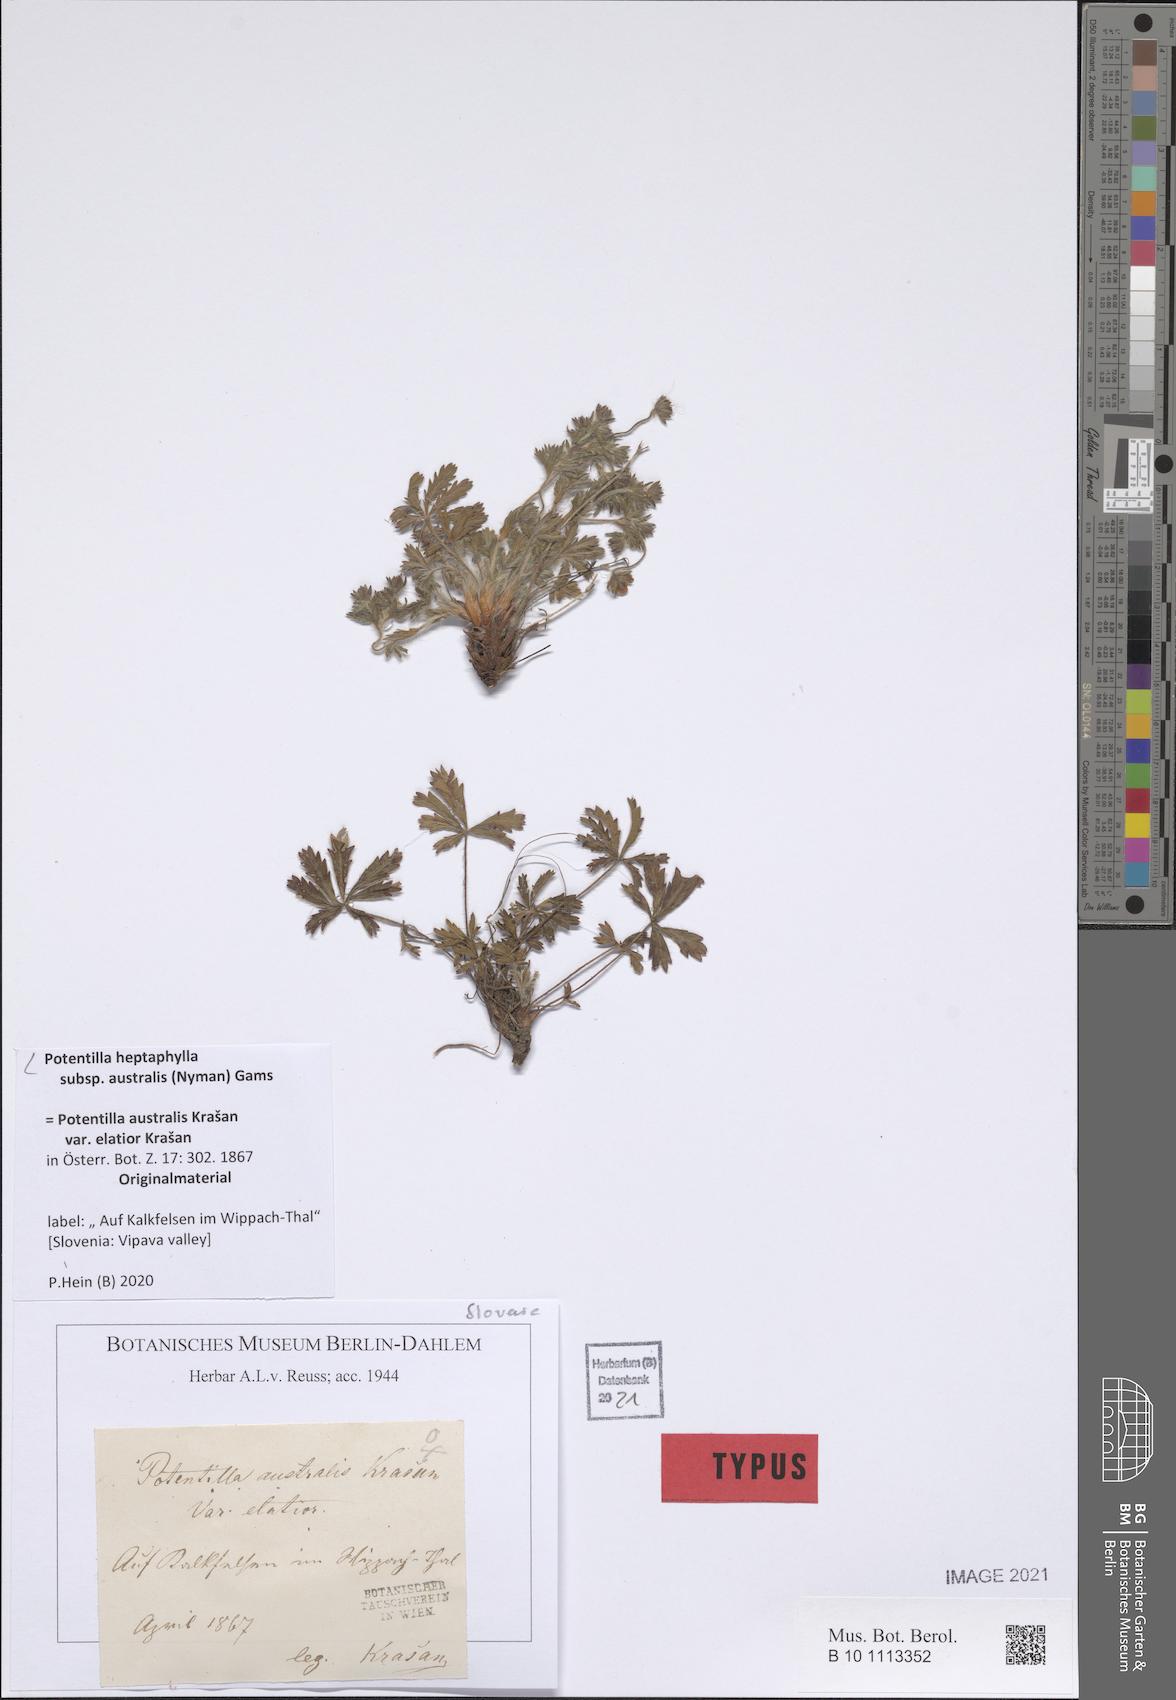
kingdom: Plantae
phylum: Tracheophyta
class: Magnoliopsida
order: Rosales
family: Rosaceae
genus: Potentilla
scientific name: Potentilla heptaphylla
